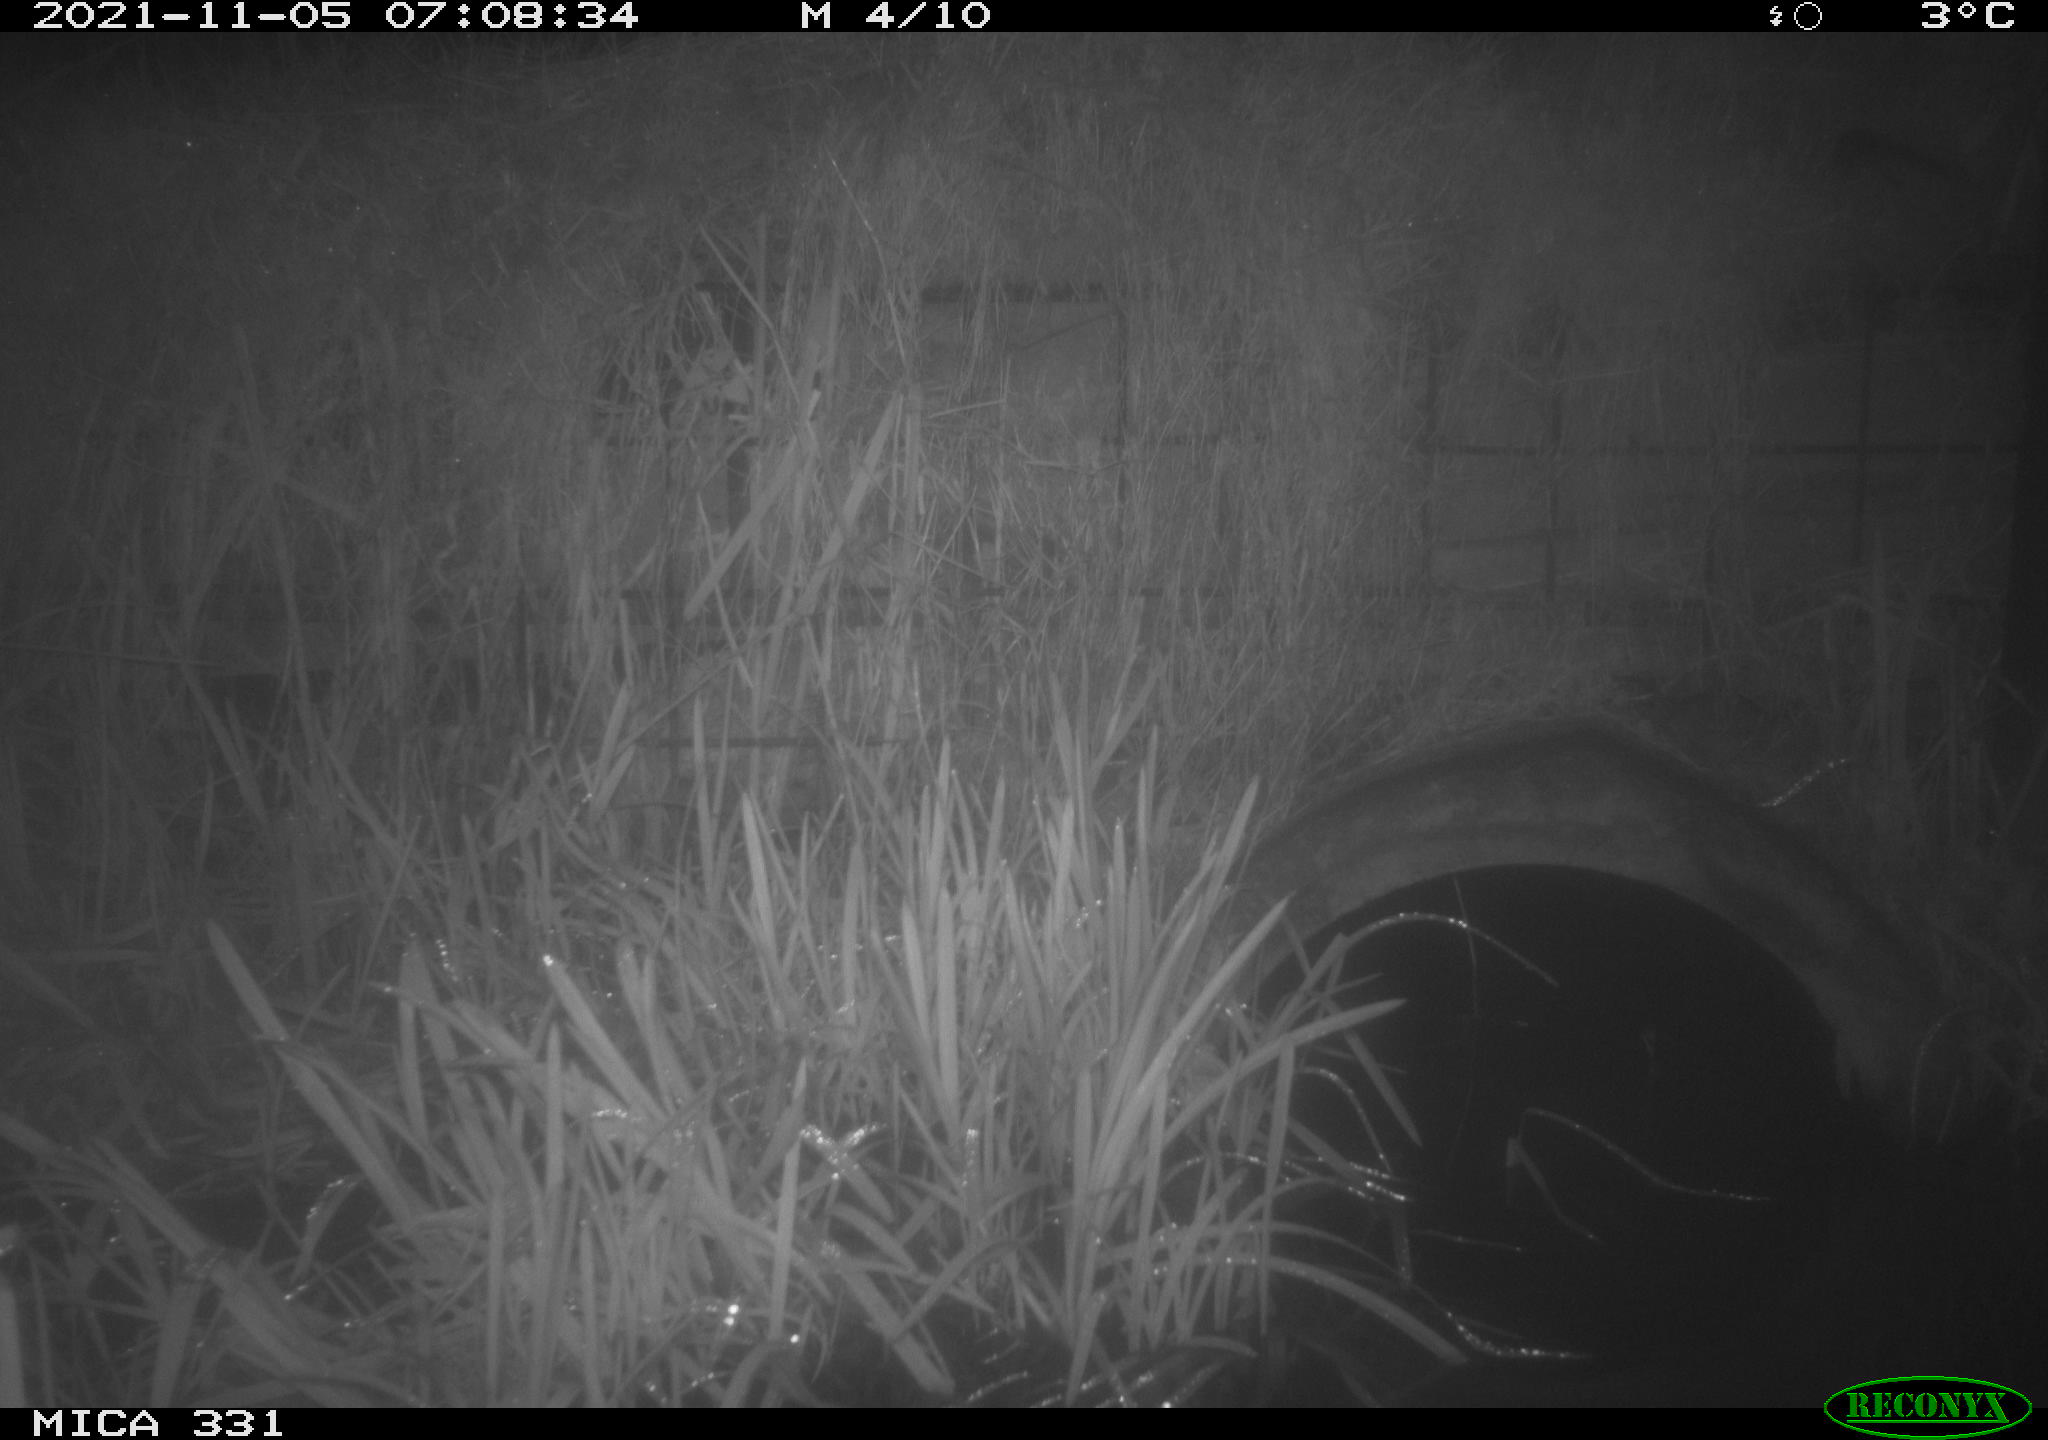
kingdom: Animalia
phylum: Chordata
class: Mammalia
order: Rodentia
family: Muridae
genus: Rattus
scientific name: Rattus norvegicus
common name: Brown rat
